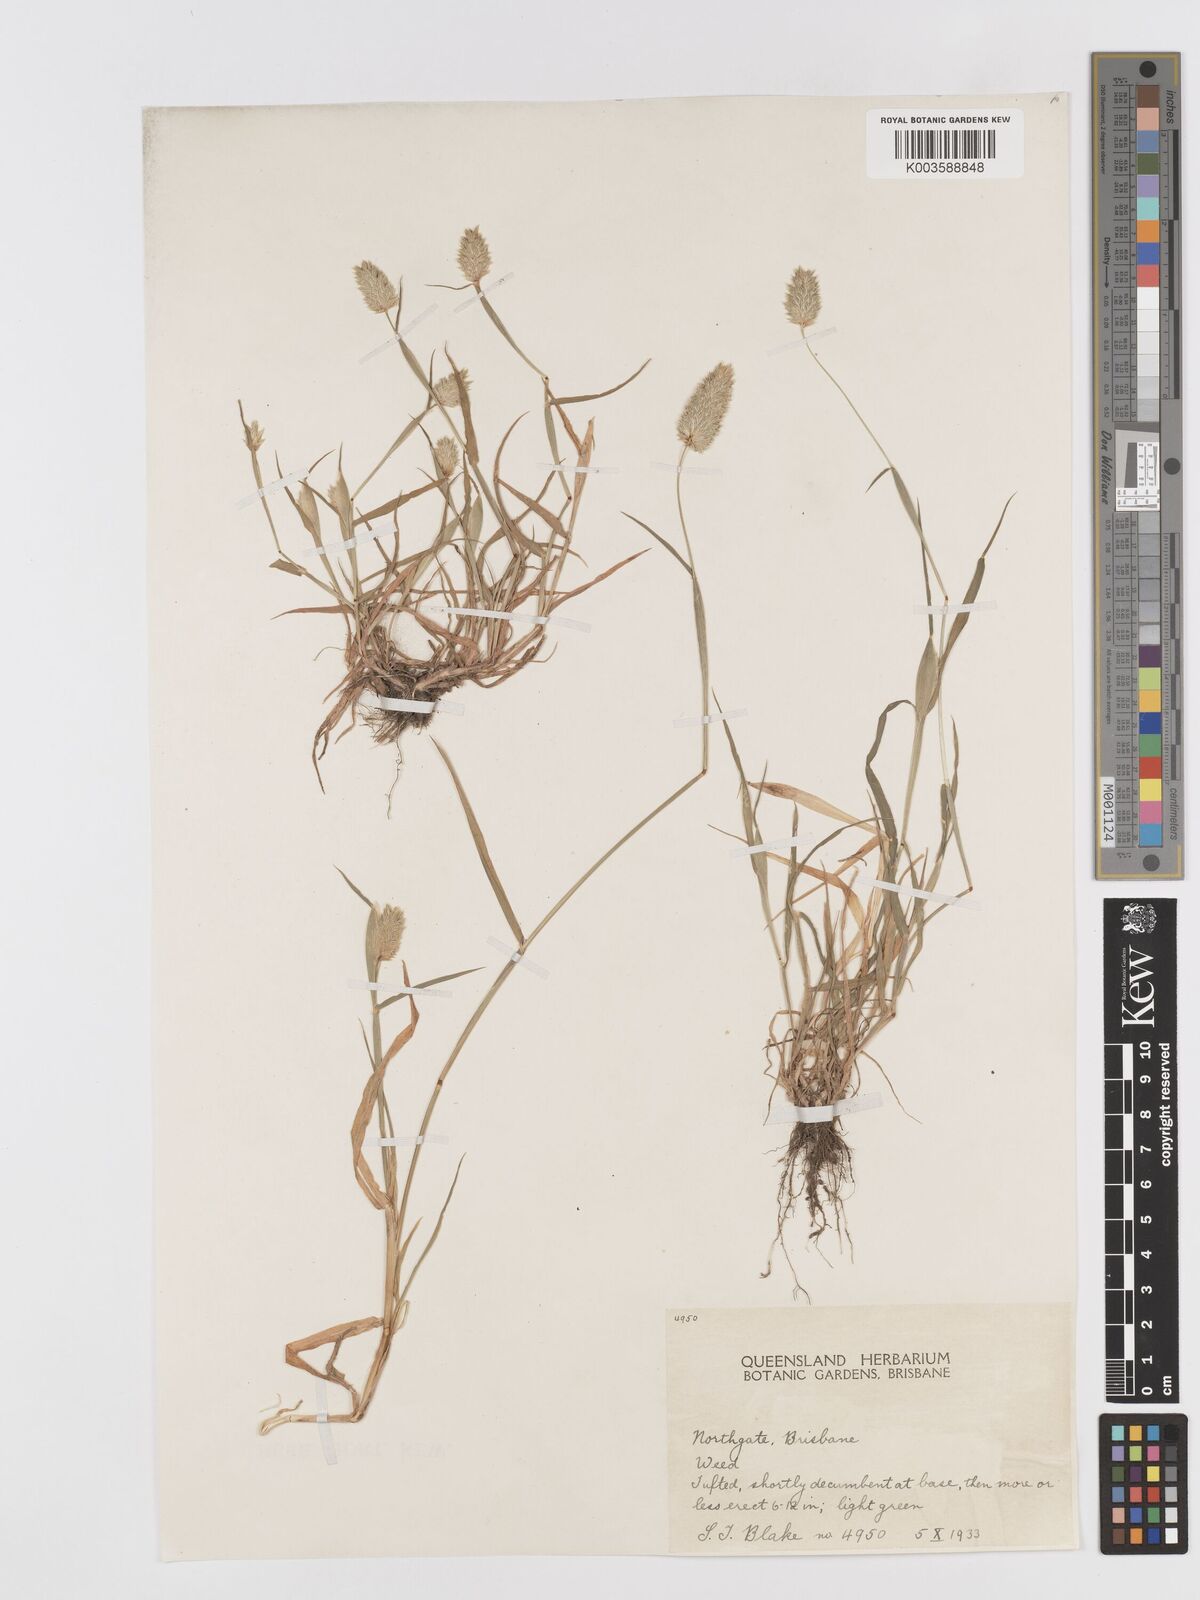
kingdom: Plantae
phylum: Tracheophyta
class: Liliopsida
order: Poales
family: Poaceae
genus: Phalaris
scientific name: Phalaris minor
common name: Littleseed canarygrass
